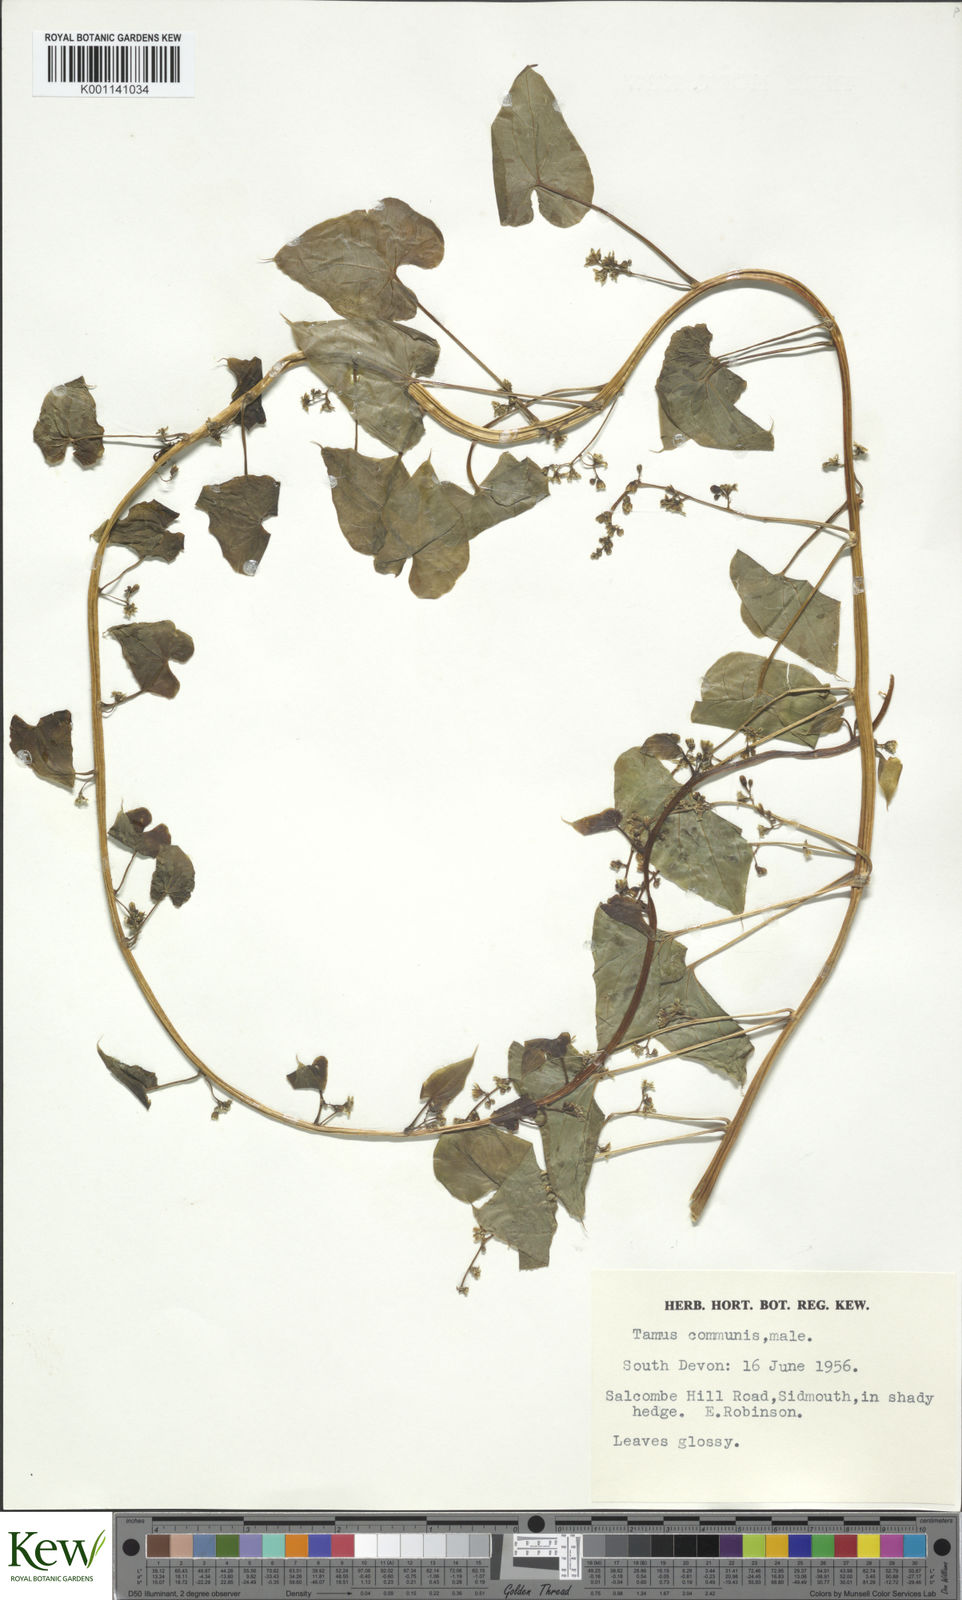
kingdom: Plantae
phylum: Tracheophyta
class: Liliopsida
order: Dioscoreales
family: Dioscoreaceae
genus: Dioscorea
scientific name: Dioscorea communis
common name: Black-bindweed
